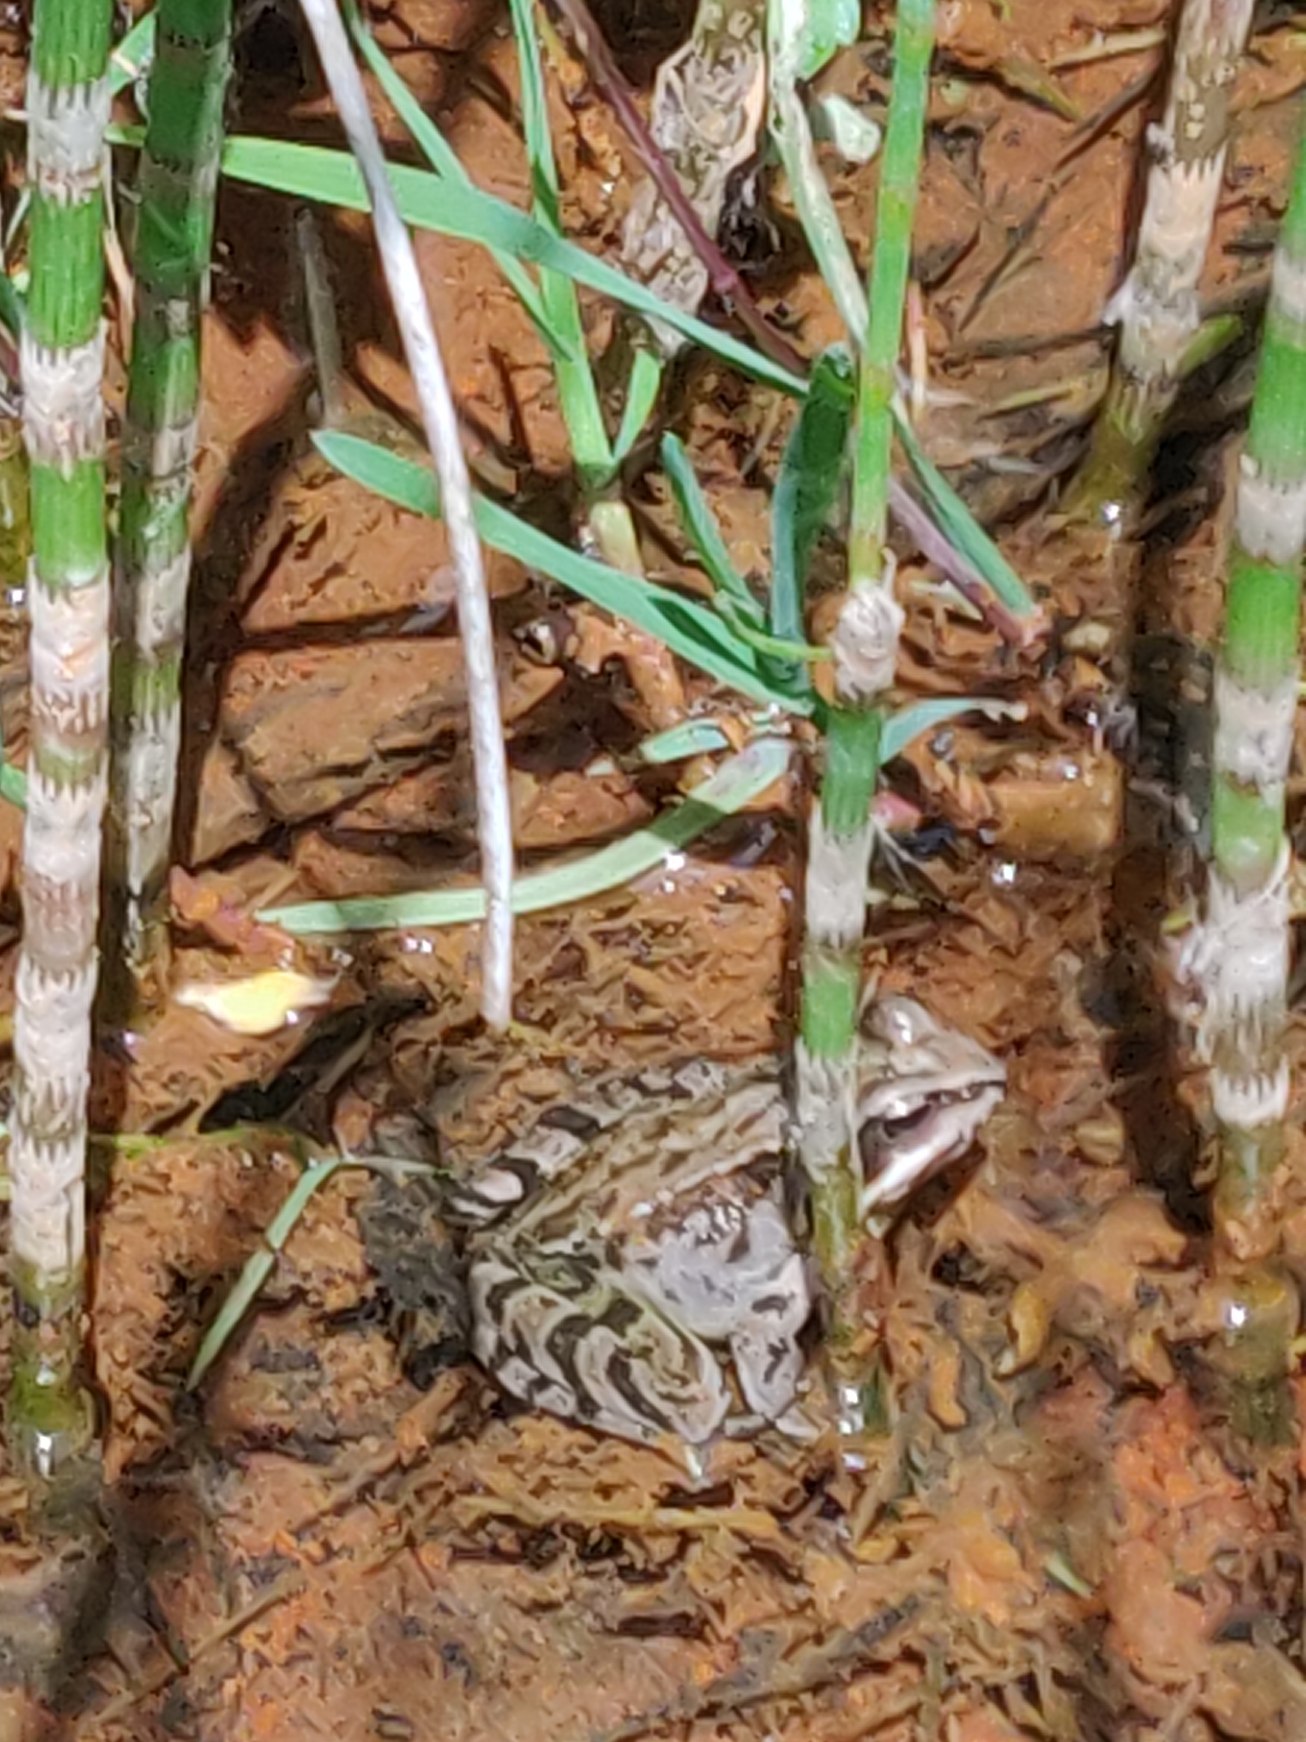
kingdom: Animalia
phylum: Chordata
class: Amphibia
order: Anura
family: Ranidae
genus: Rana
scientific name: Rana temporaria
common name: Butsnudet frø
